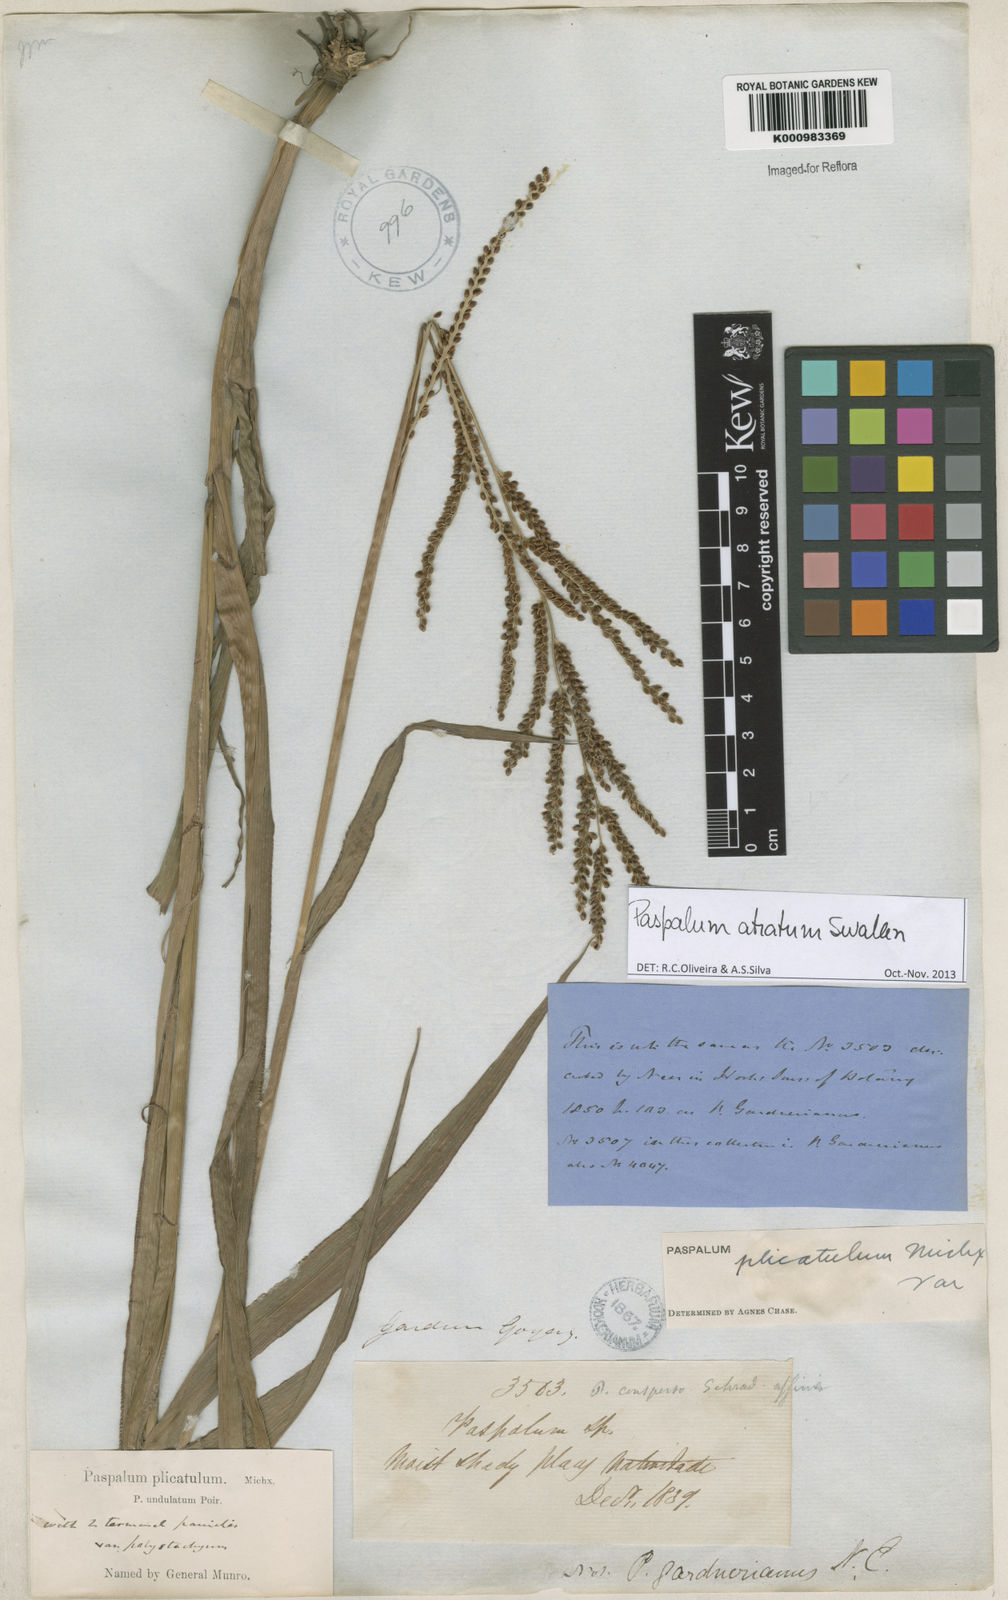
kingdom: Plantae
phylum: Tracheophyta
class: Liliopsida
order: Poales
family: Poaceae
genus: Paspalum
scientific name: Paspalum atratum
